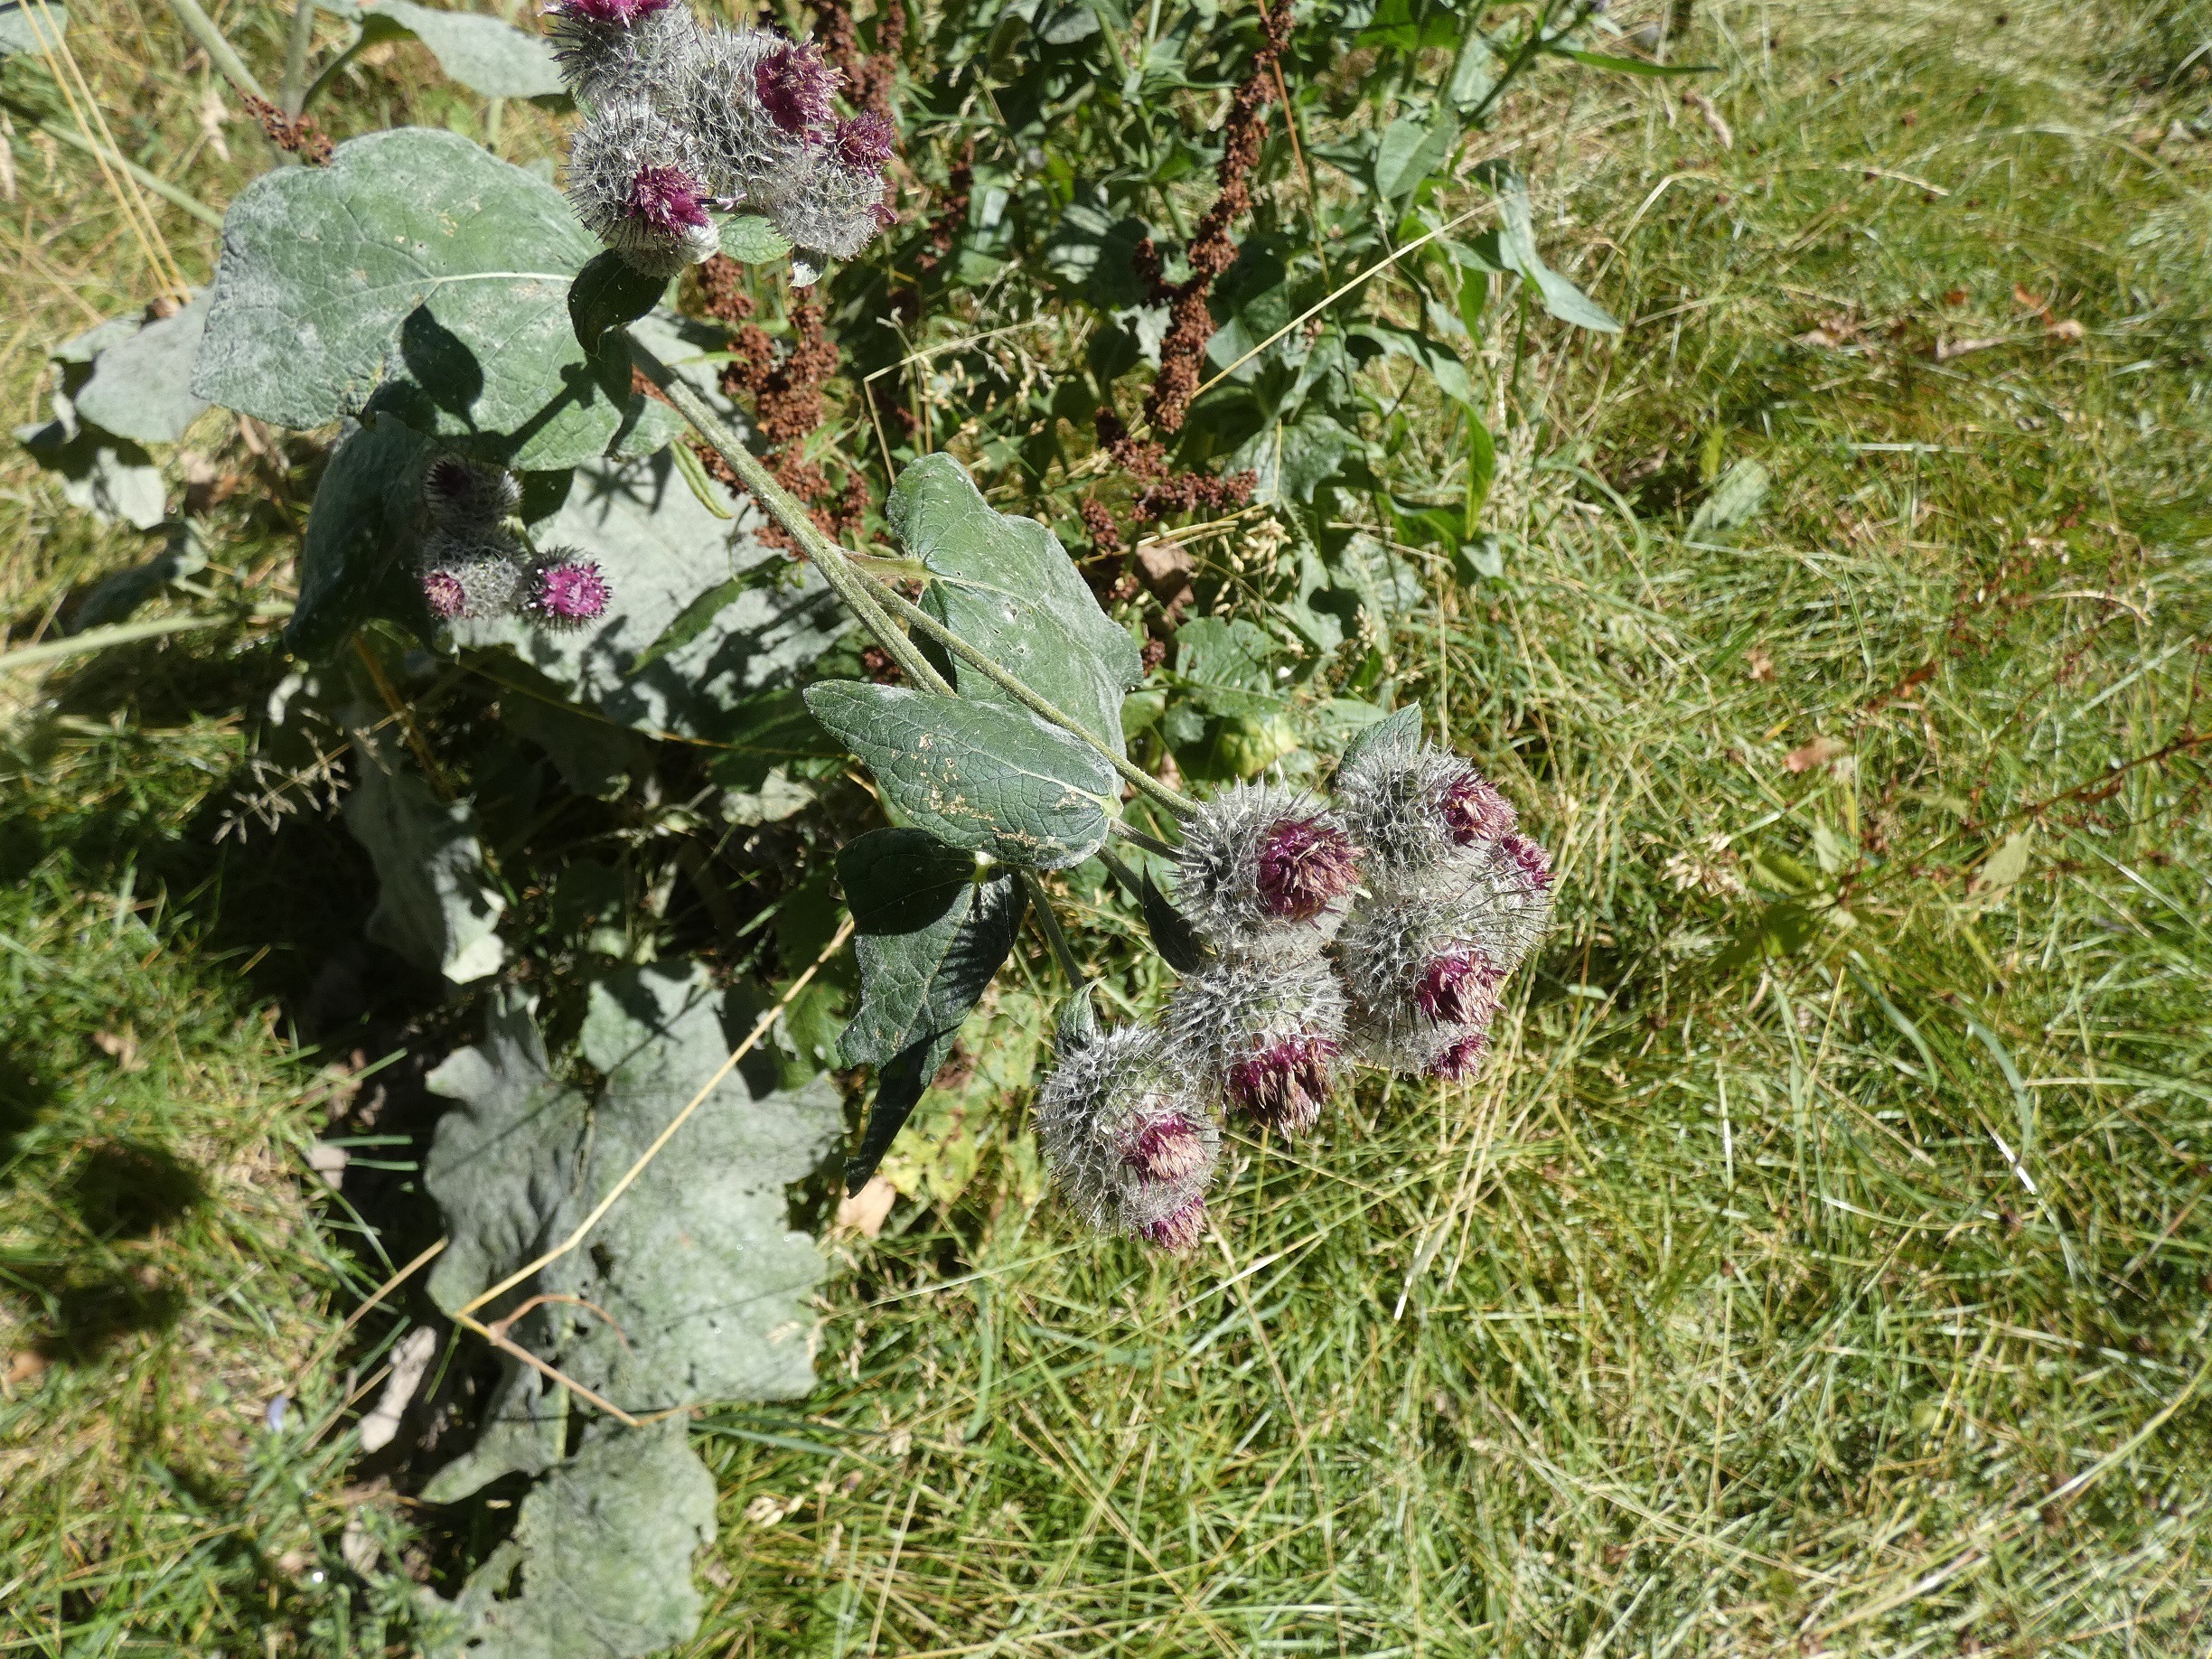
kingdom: Plantae
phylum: Tracheophyta
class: Magnoliopsida
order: Asterales
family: Asteraceae
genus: Arctium
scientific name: Arctium tomentosum
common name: Filtet burre
